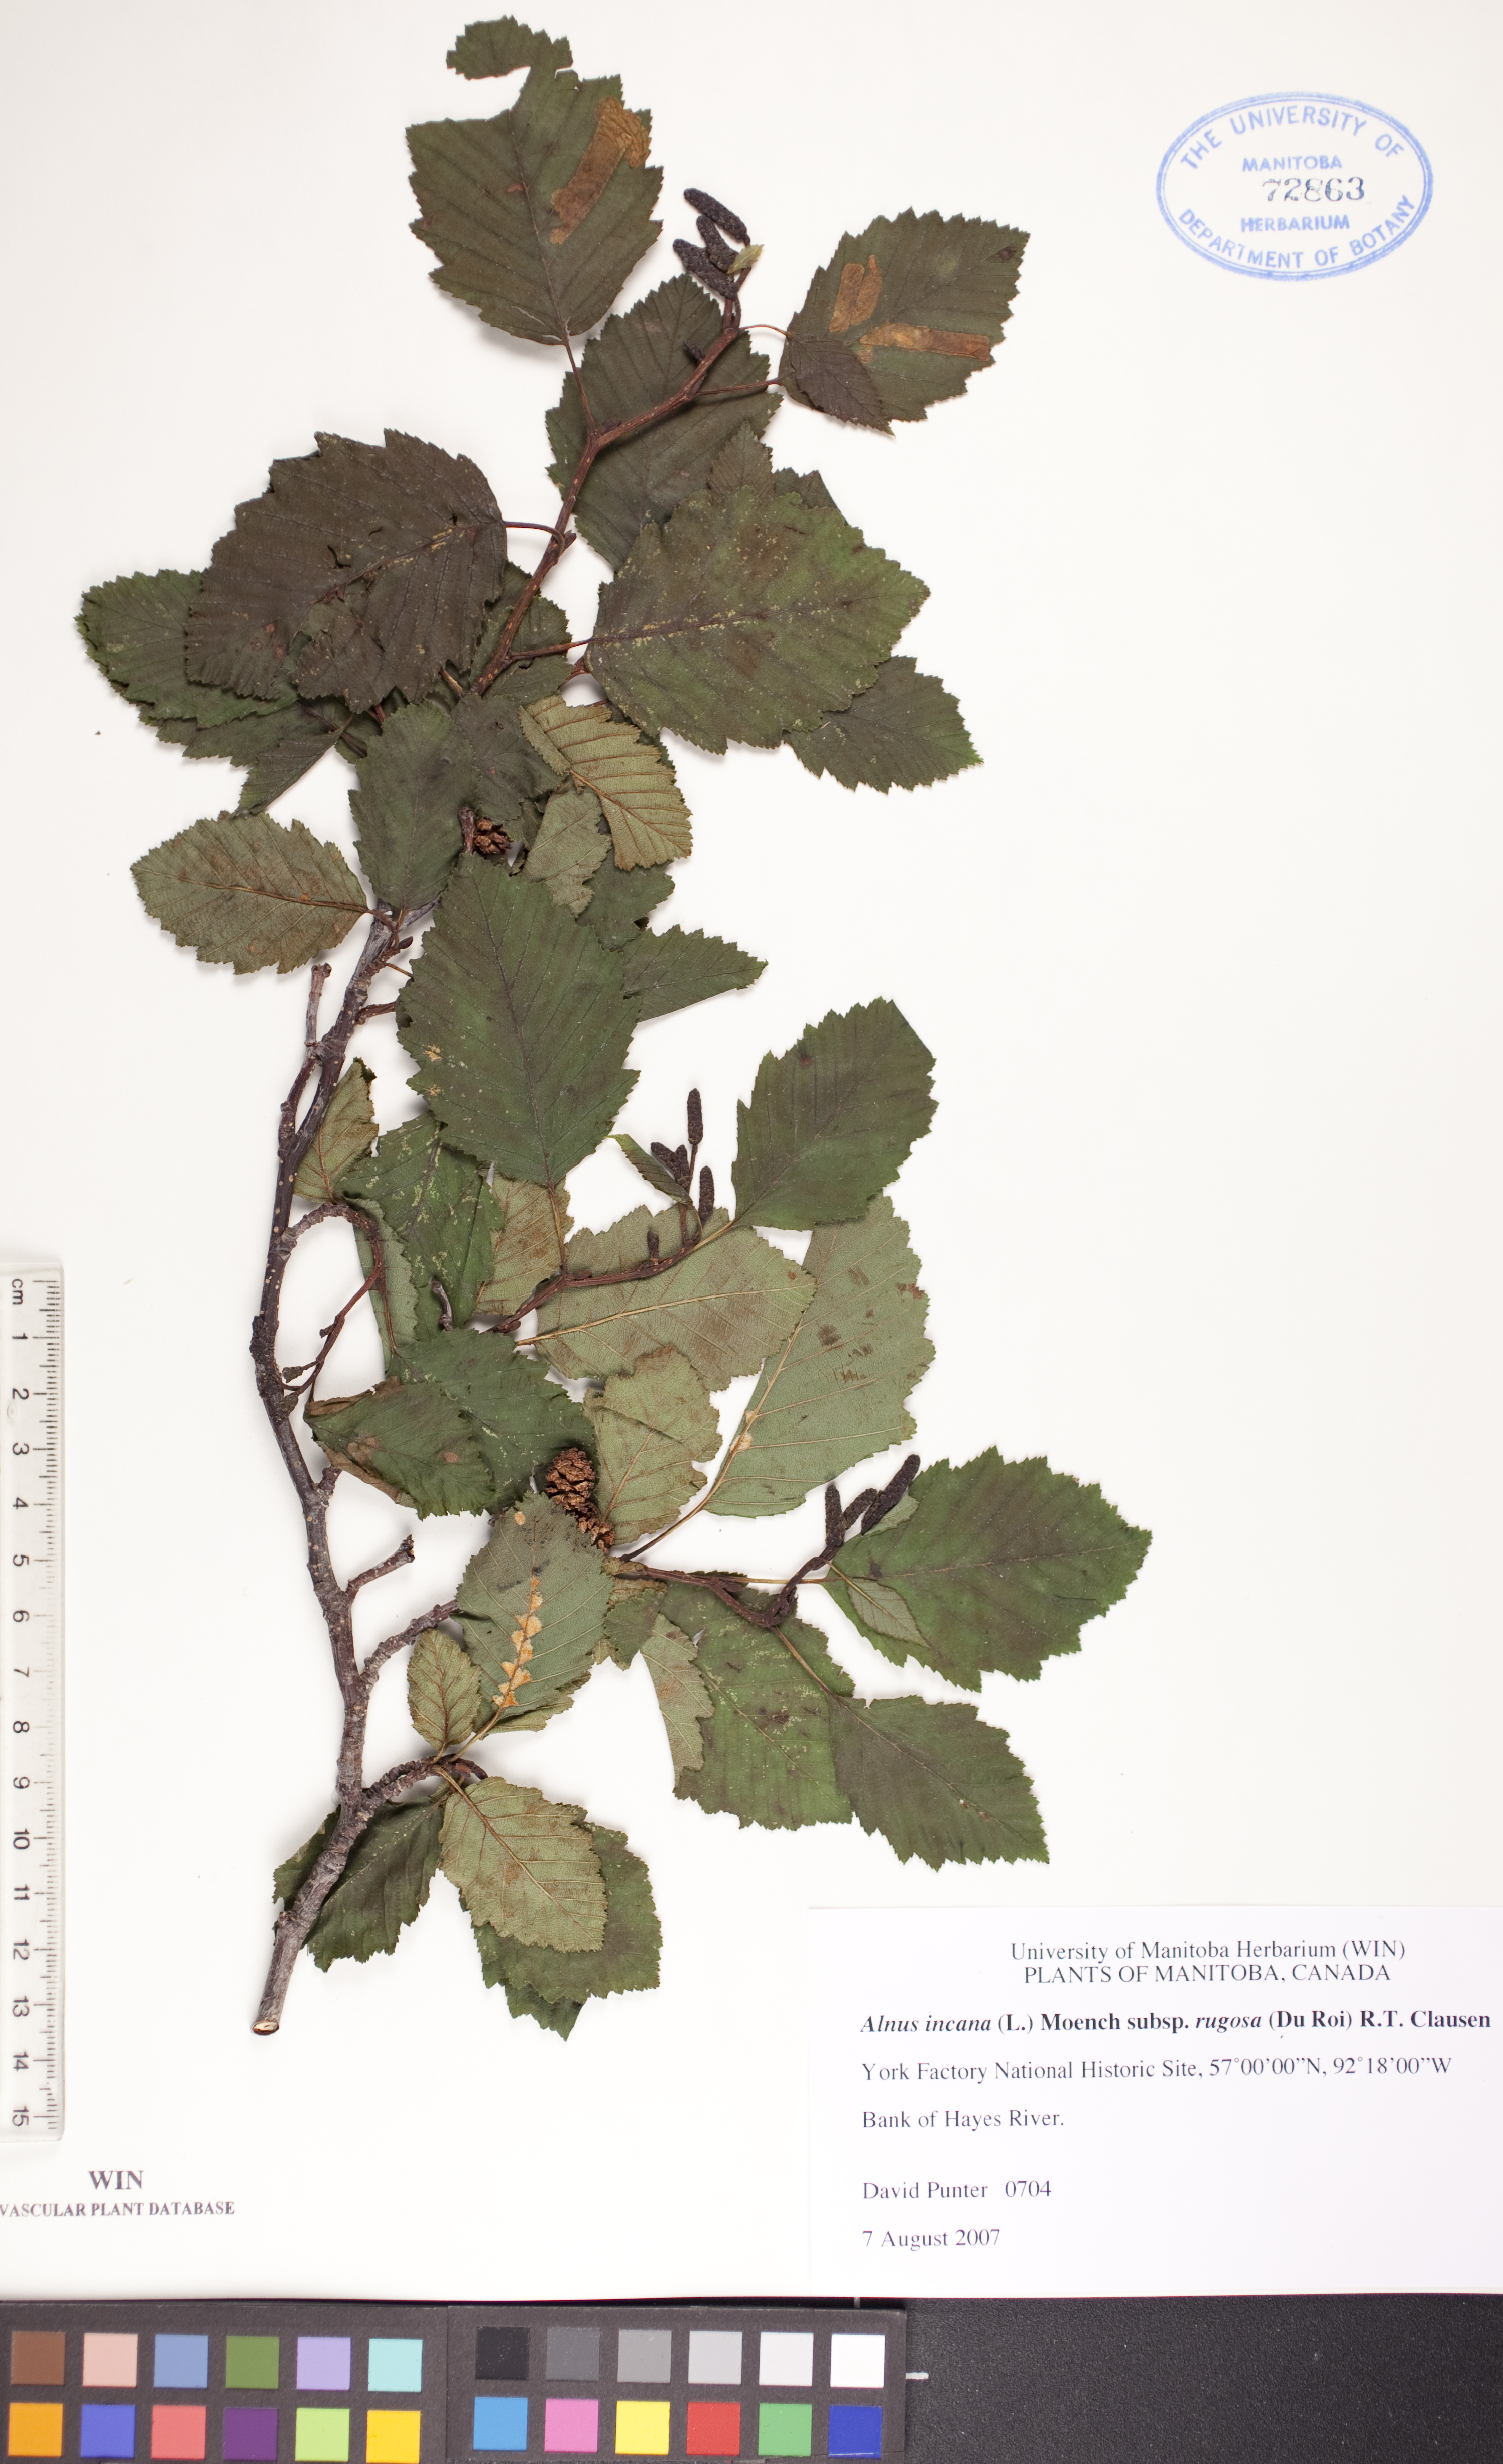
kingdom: Plantae
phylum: Tracheophyta
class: Magnoliopsida
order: Fagales
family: Betulaceae
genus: Alnus
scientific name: Alnus incana
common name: Grey alder
